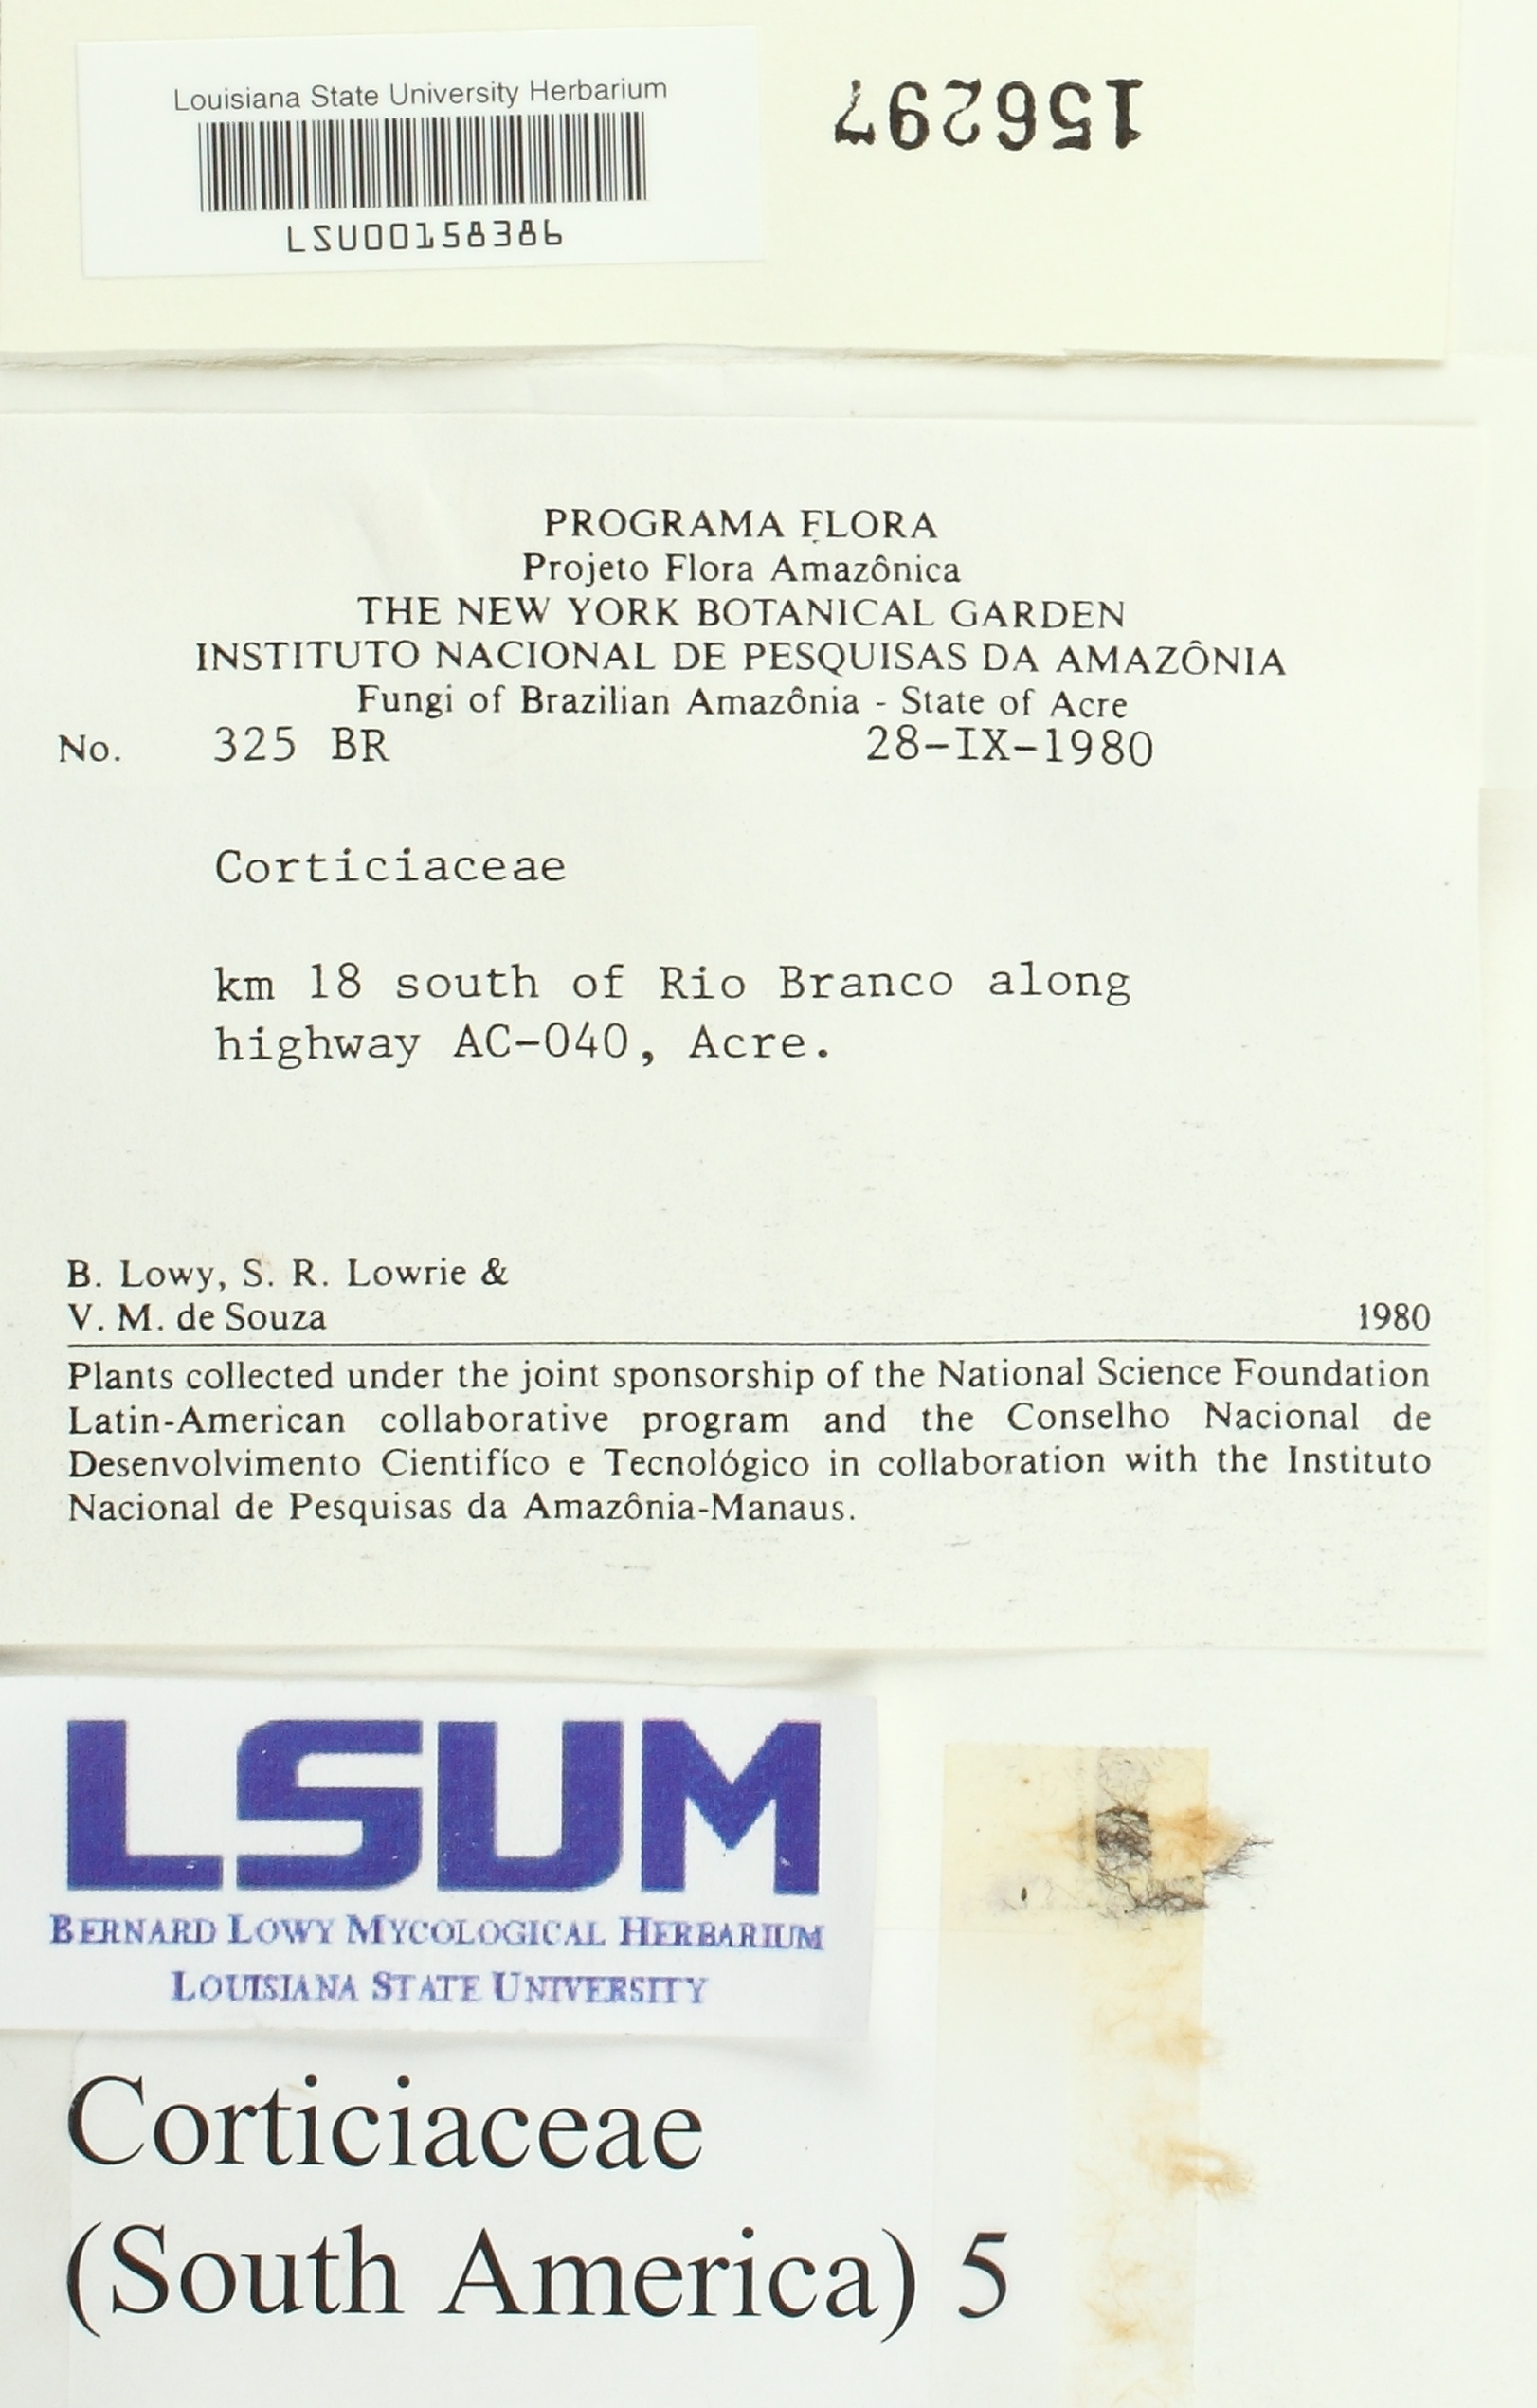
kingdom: Fungi
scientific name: Fungi
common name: Fungi
